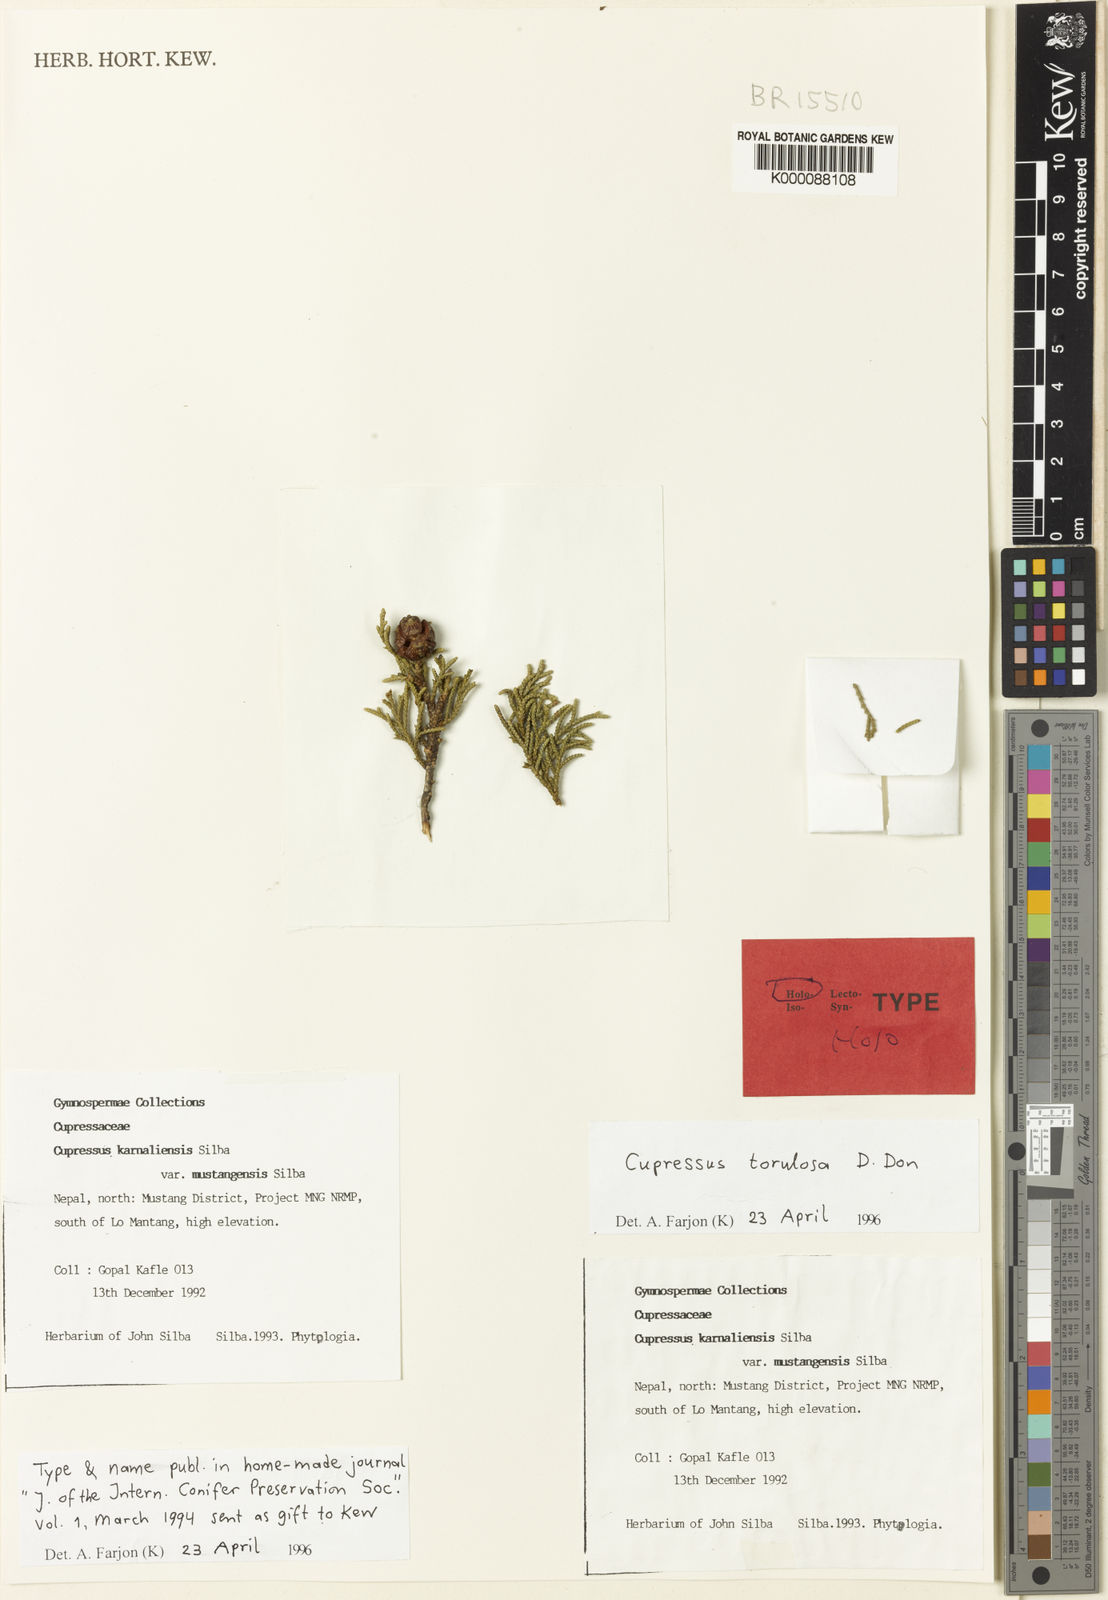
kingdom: Plantae
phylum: Tracheophyta
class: Pinopsida
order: Pinales
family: Cupressaceae
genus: Cupressus
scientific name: Cupressus
